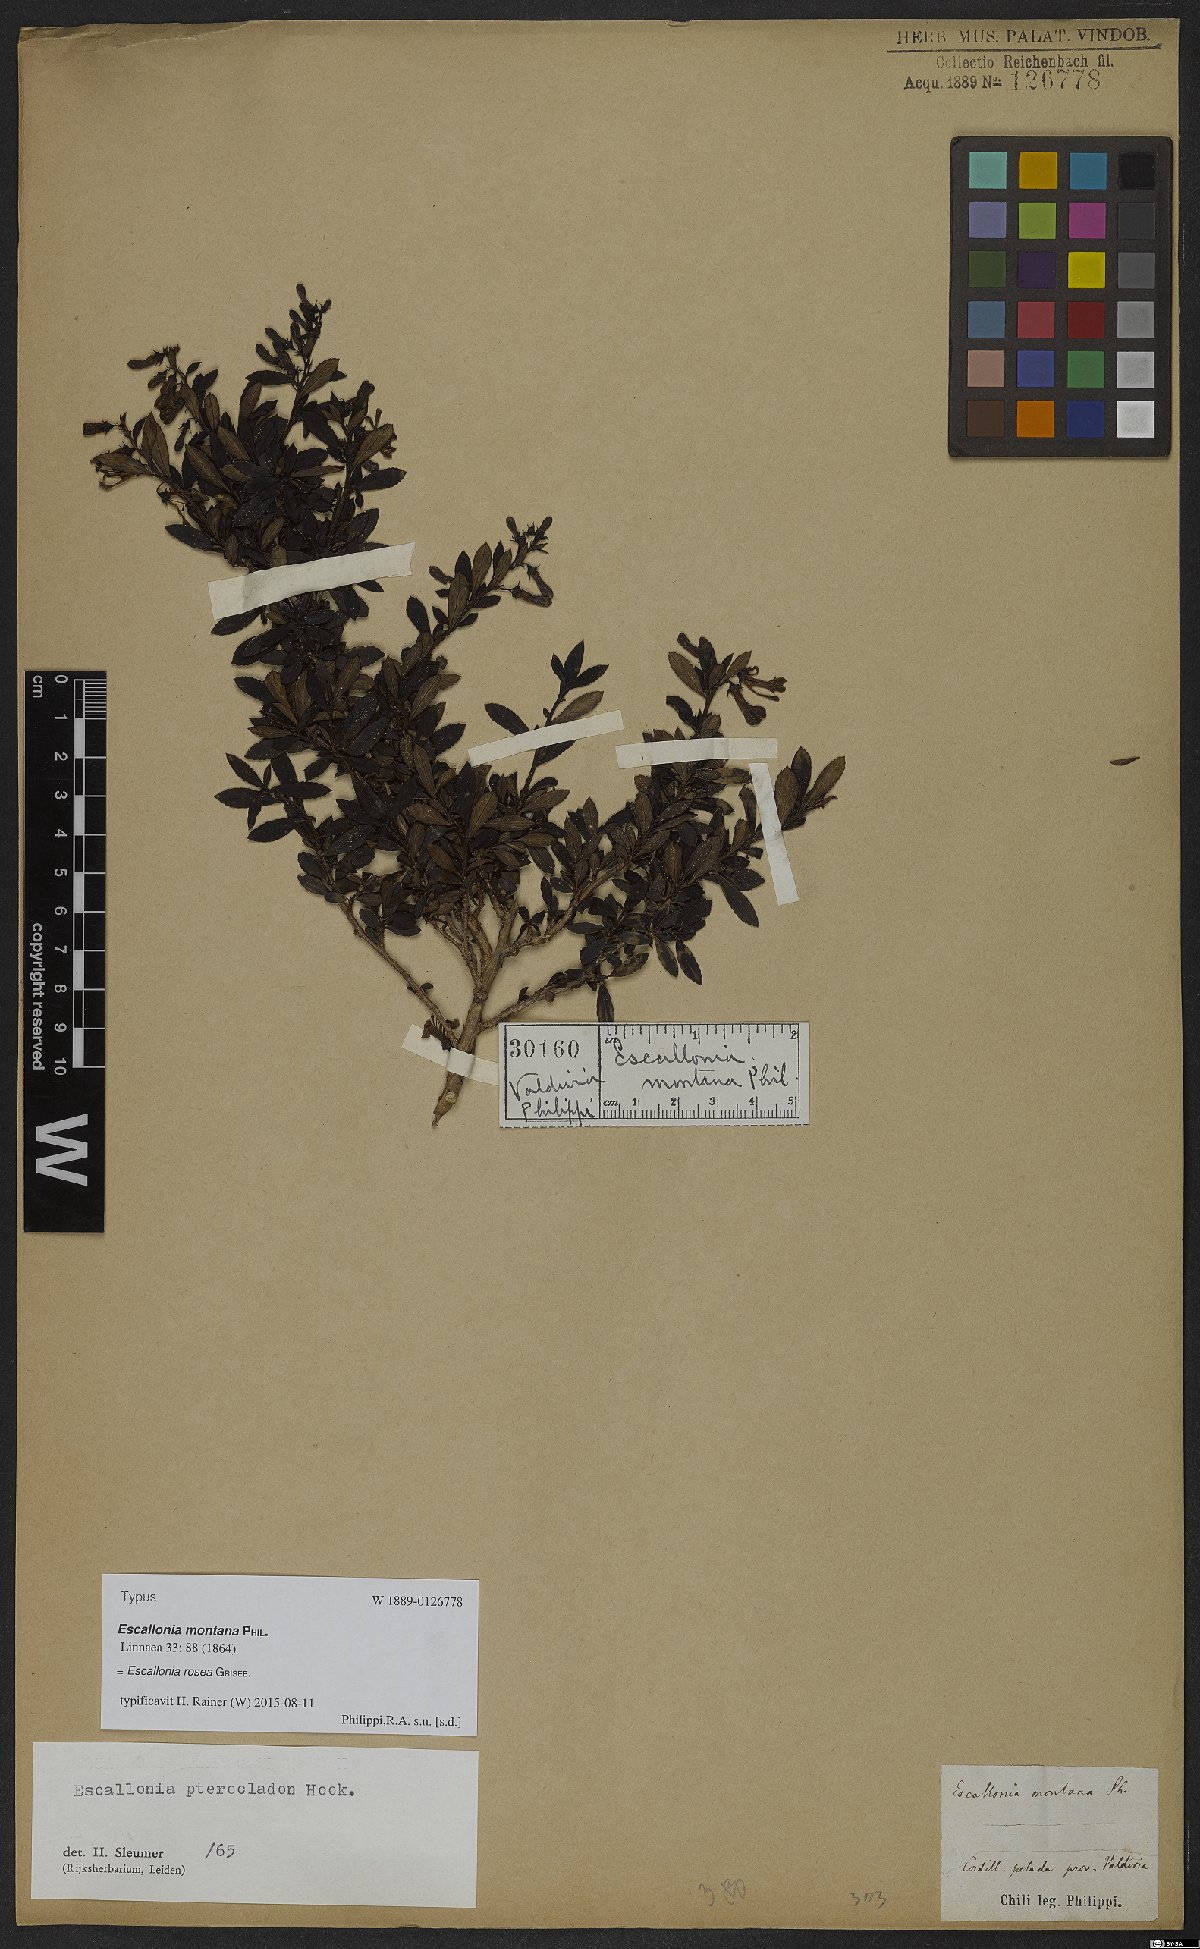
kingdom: Plantae
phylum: Tracheophyta
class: Magnoliopsida
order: Escalloniales
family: Escalloniaceae
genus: Escallonia
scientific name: Escallonia rosea
